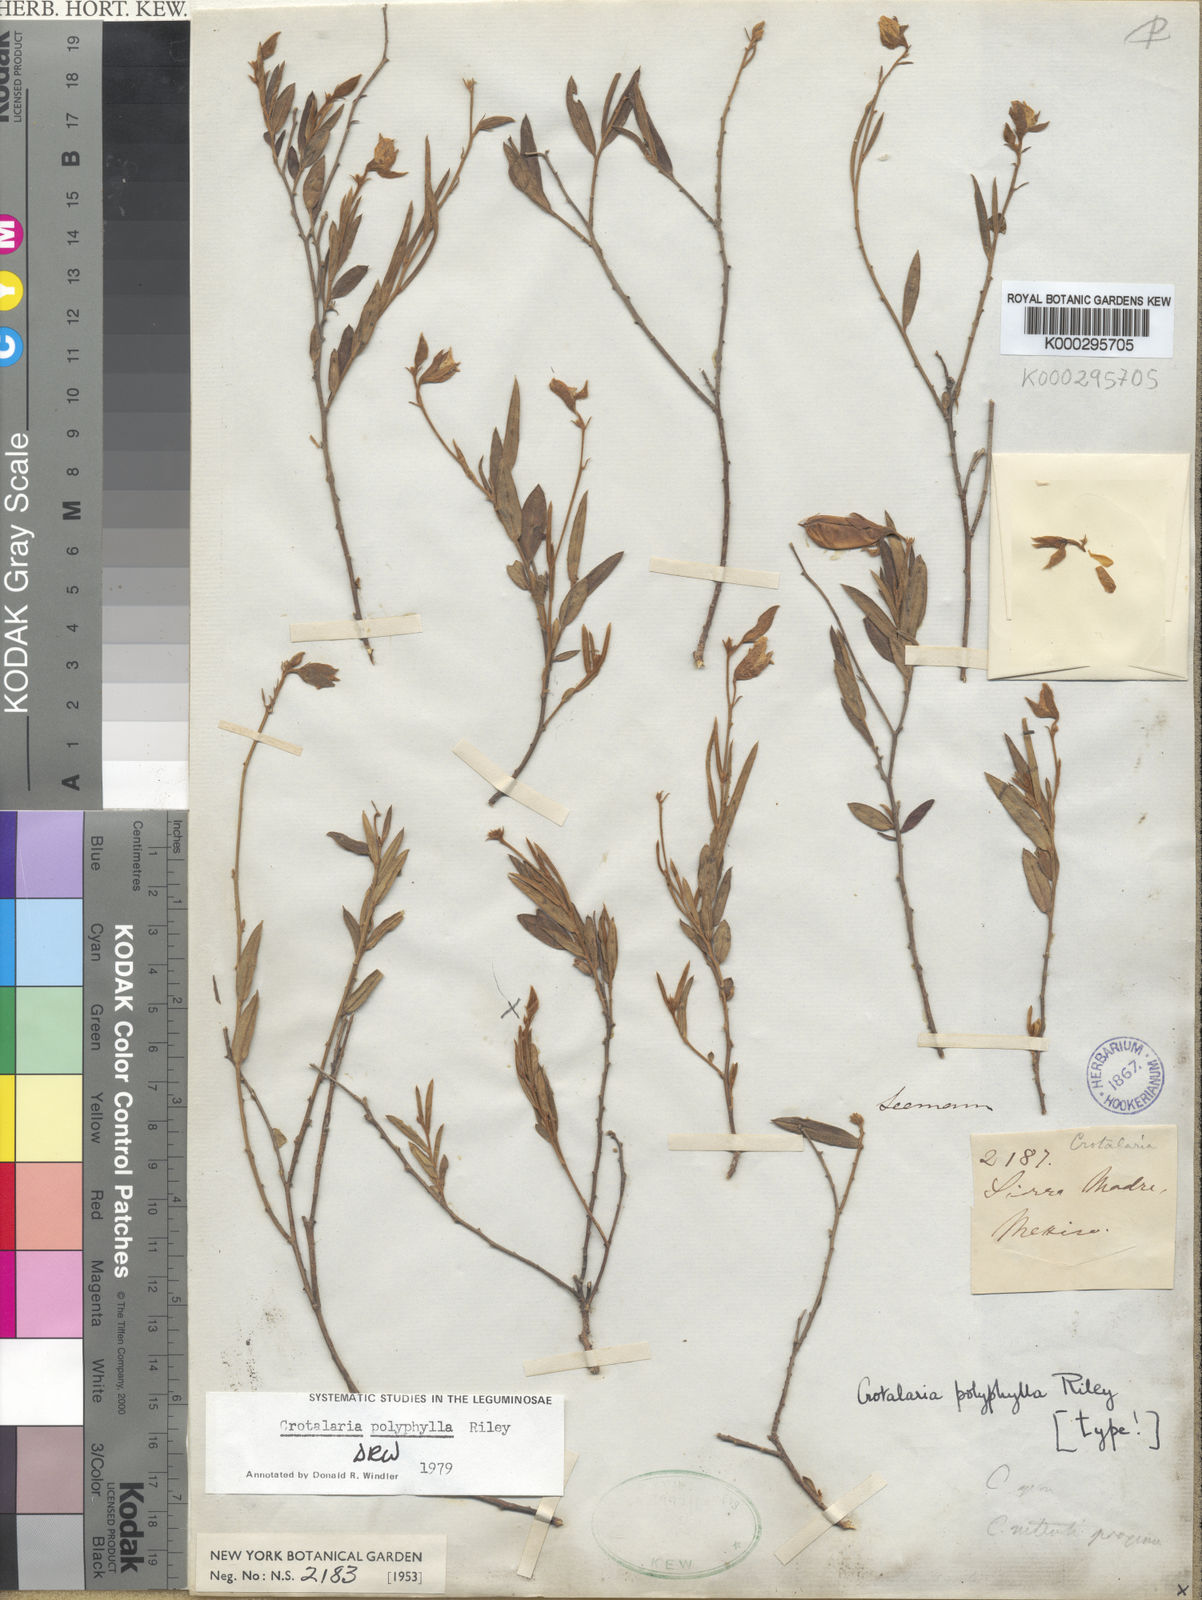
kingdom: Plantae
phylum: Tracheophyta
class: Magnoliopsida
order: Fabales
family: Fabaceae
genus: Crotalaria
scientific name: Crotalaria polyphylla
